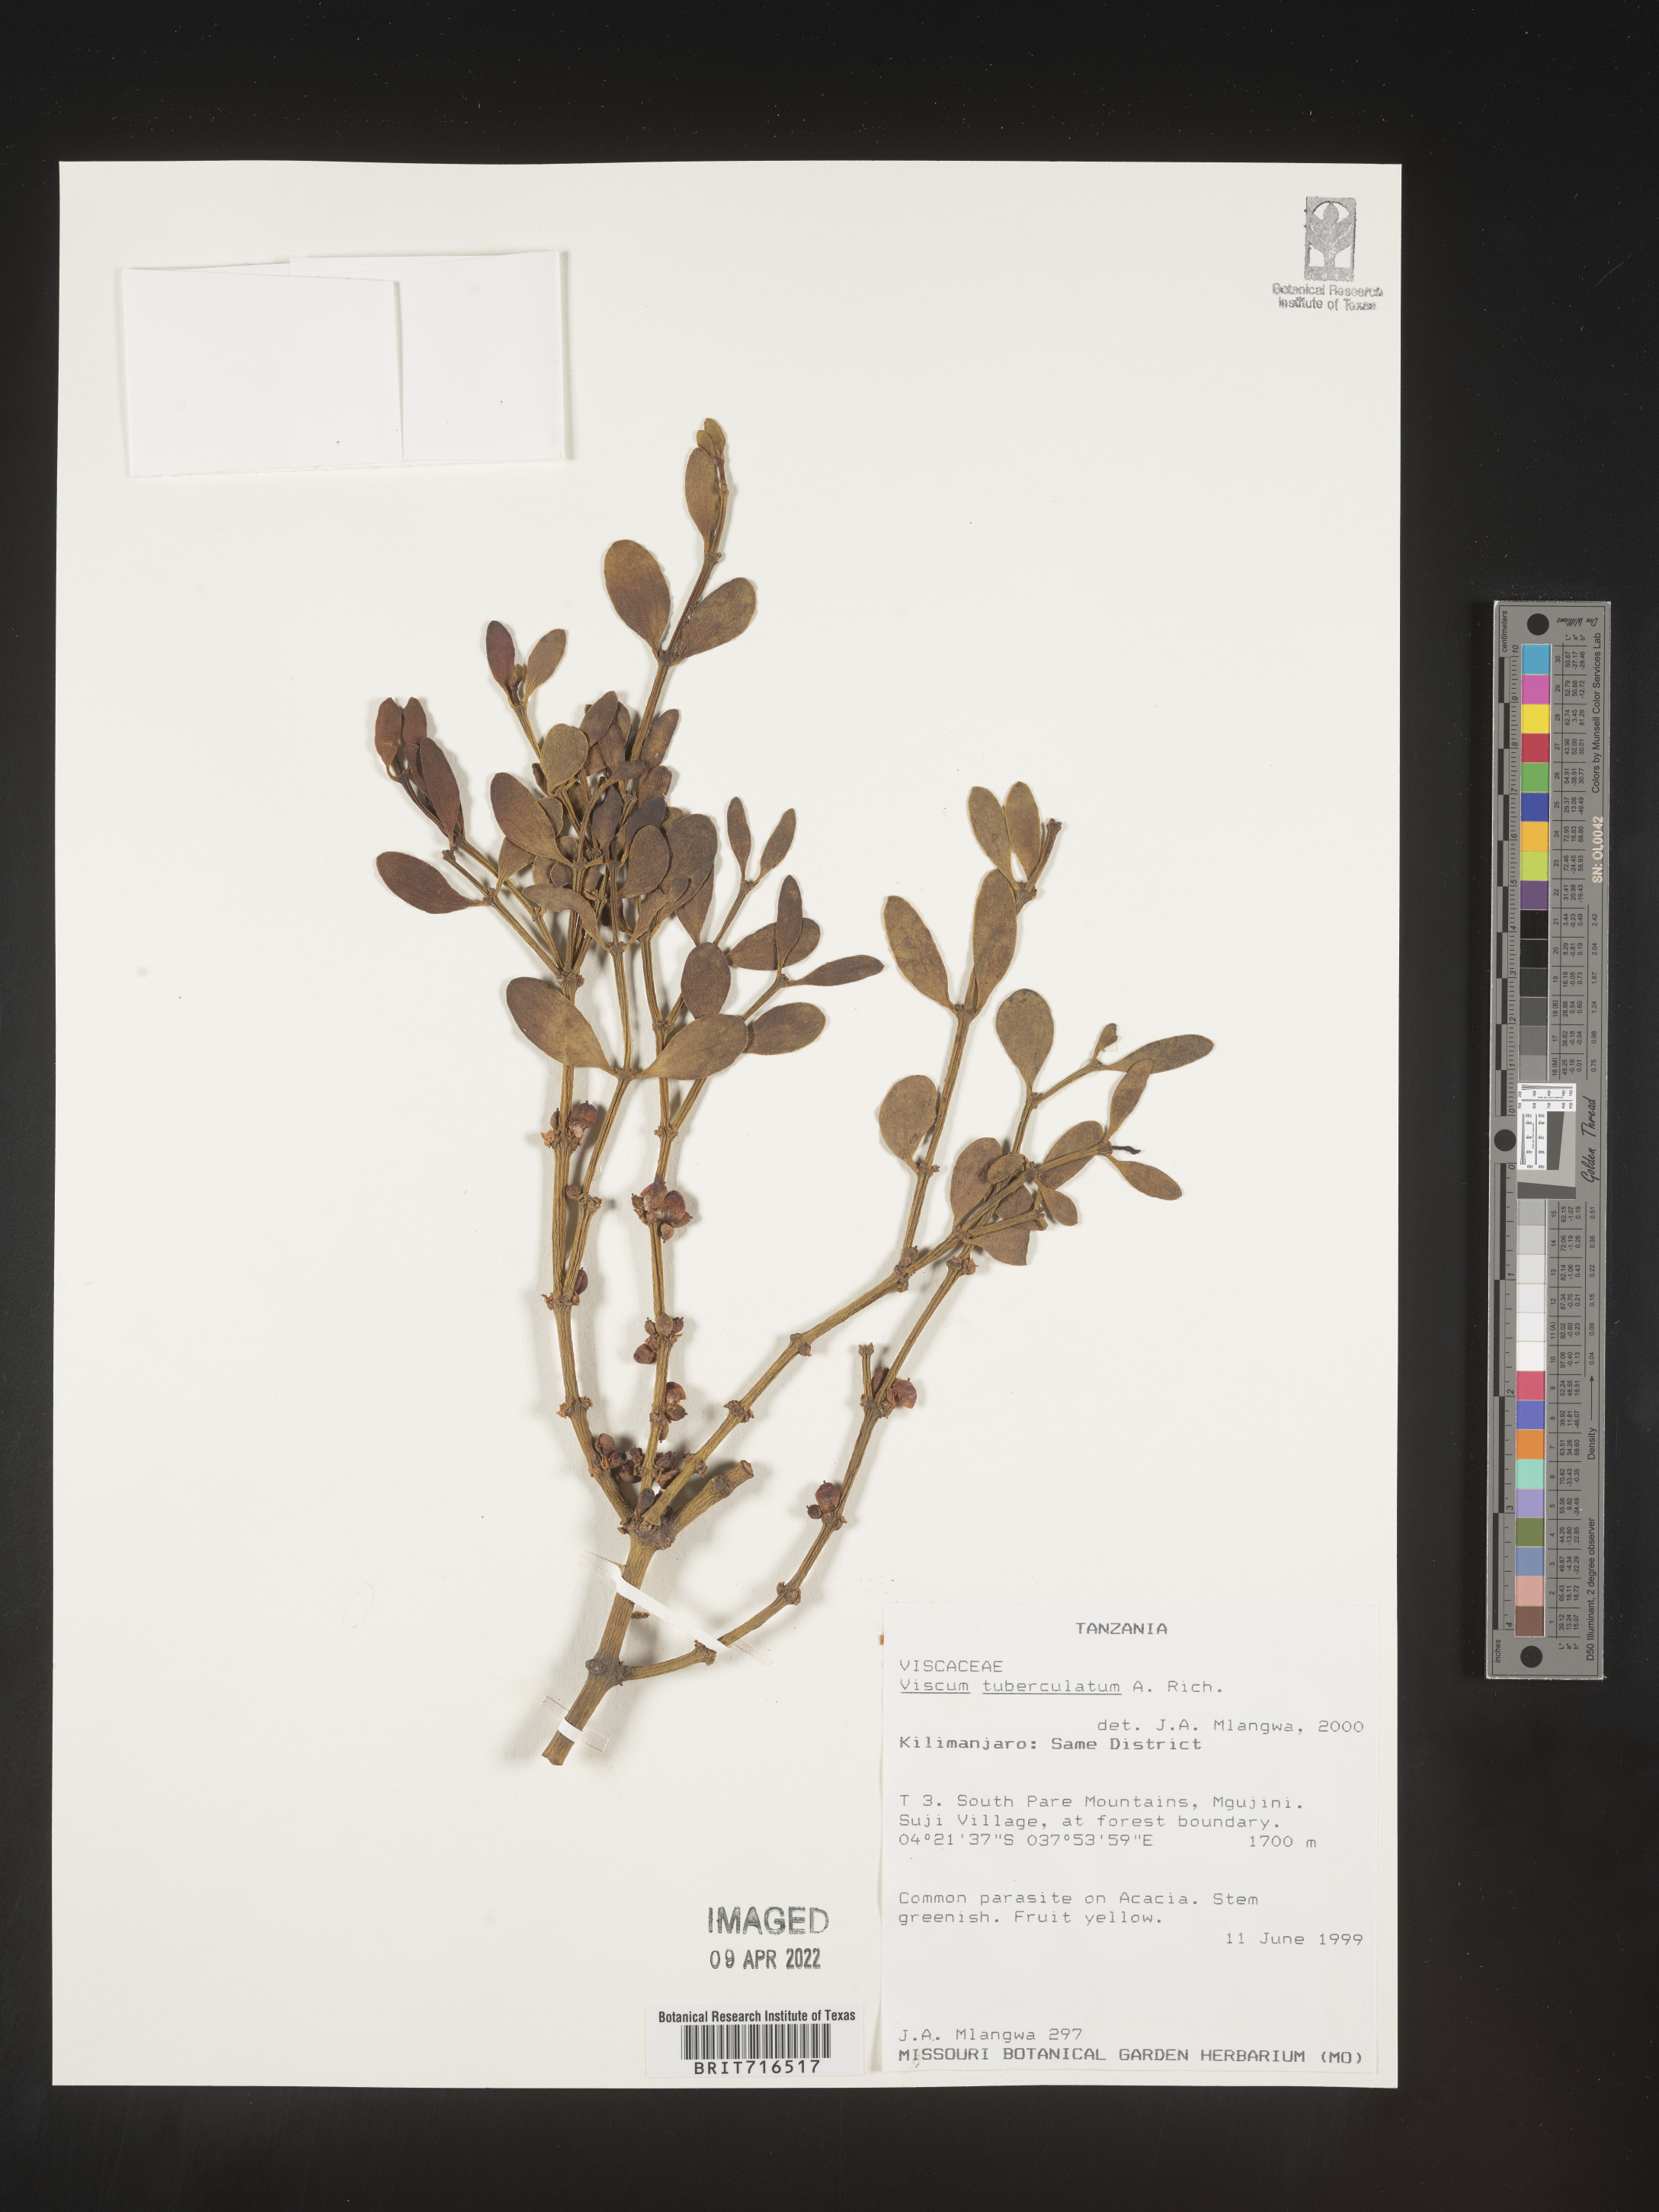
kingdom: Plantae
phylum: Tracheophyta
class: Magnoliopsida
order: Santalales
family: Viscaceae
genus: Viscum
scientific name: Viscum
